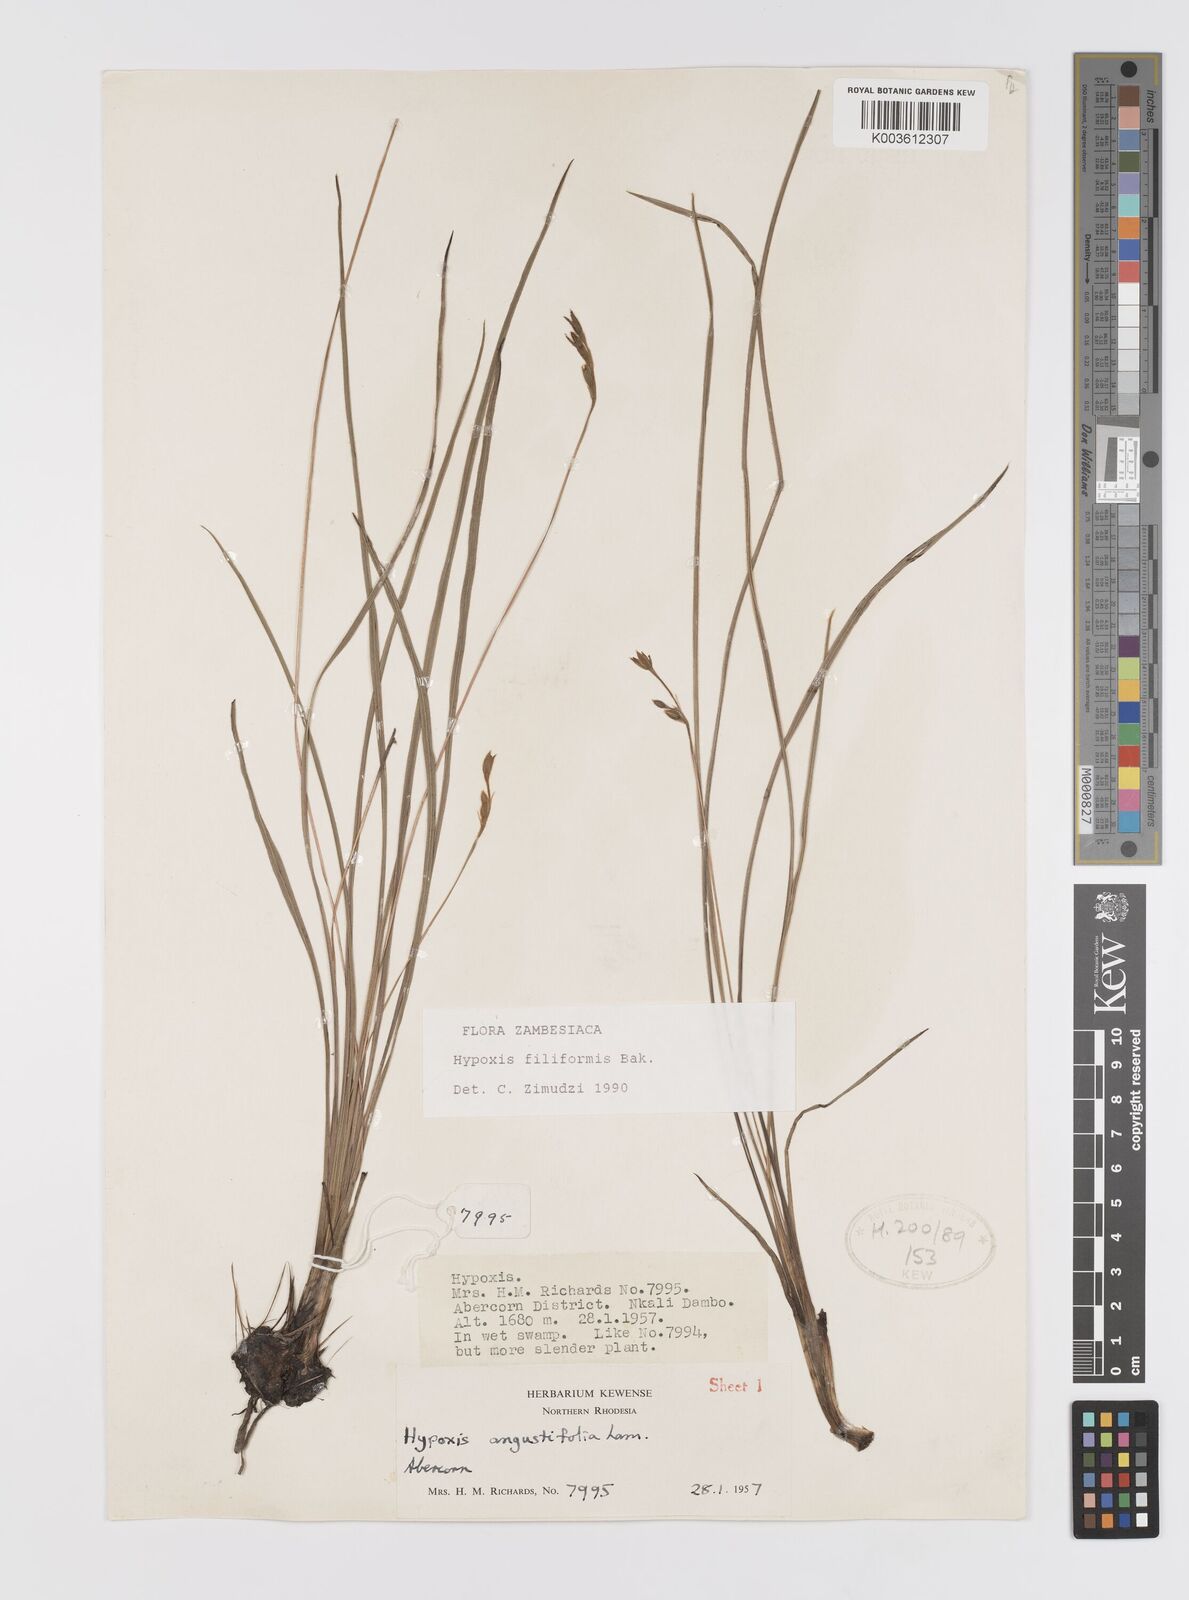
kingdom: Plantae
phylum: Tracheophyta
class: Liliopsida
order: Asparagales
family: Hypoxidaceae
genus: Hypoxis
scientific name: Hypoxis filiformis
